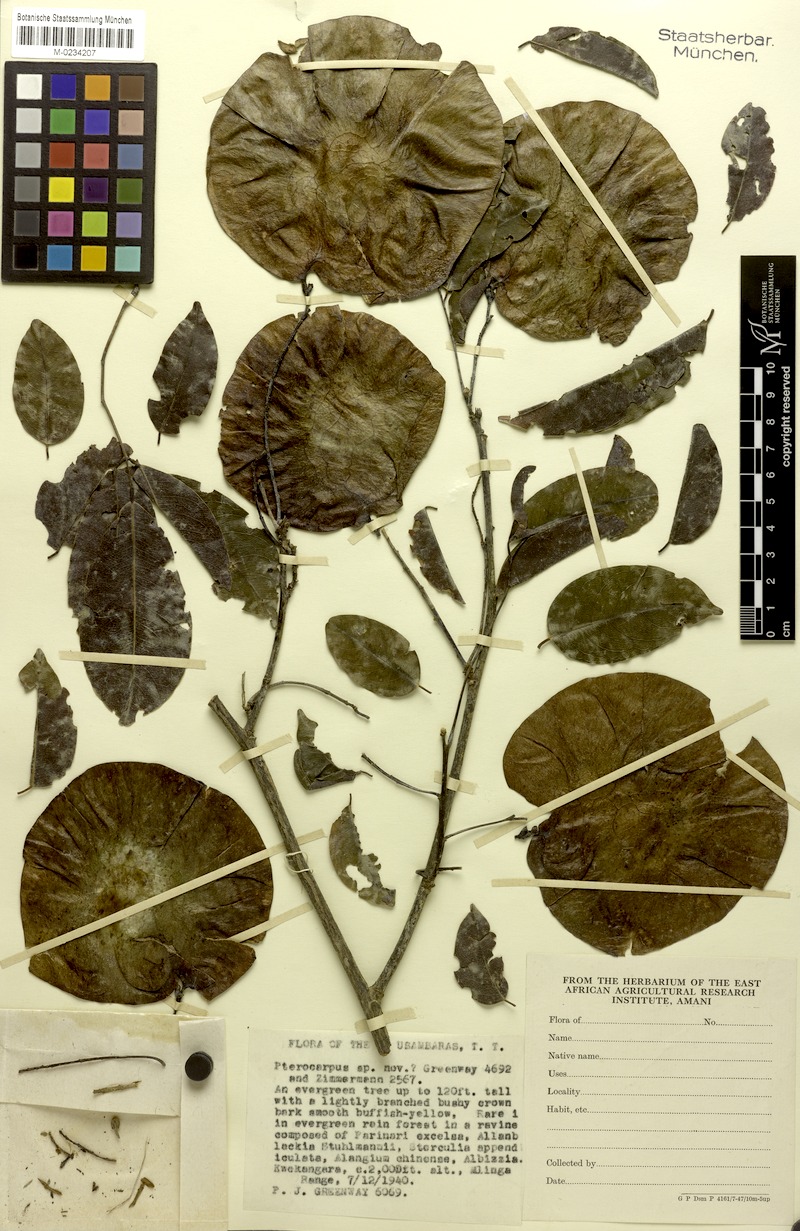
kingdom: Plantae
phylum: Tracheophyta
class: Magnoliopsida
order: Fabales
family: Fabaceae
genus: Pterocarpus
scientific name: Pterocarpus mildbraedii
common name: White padouk
